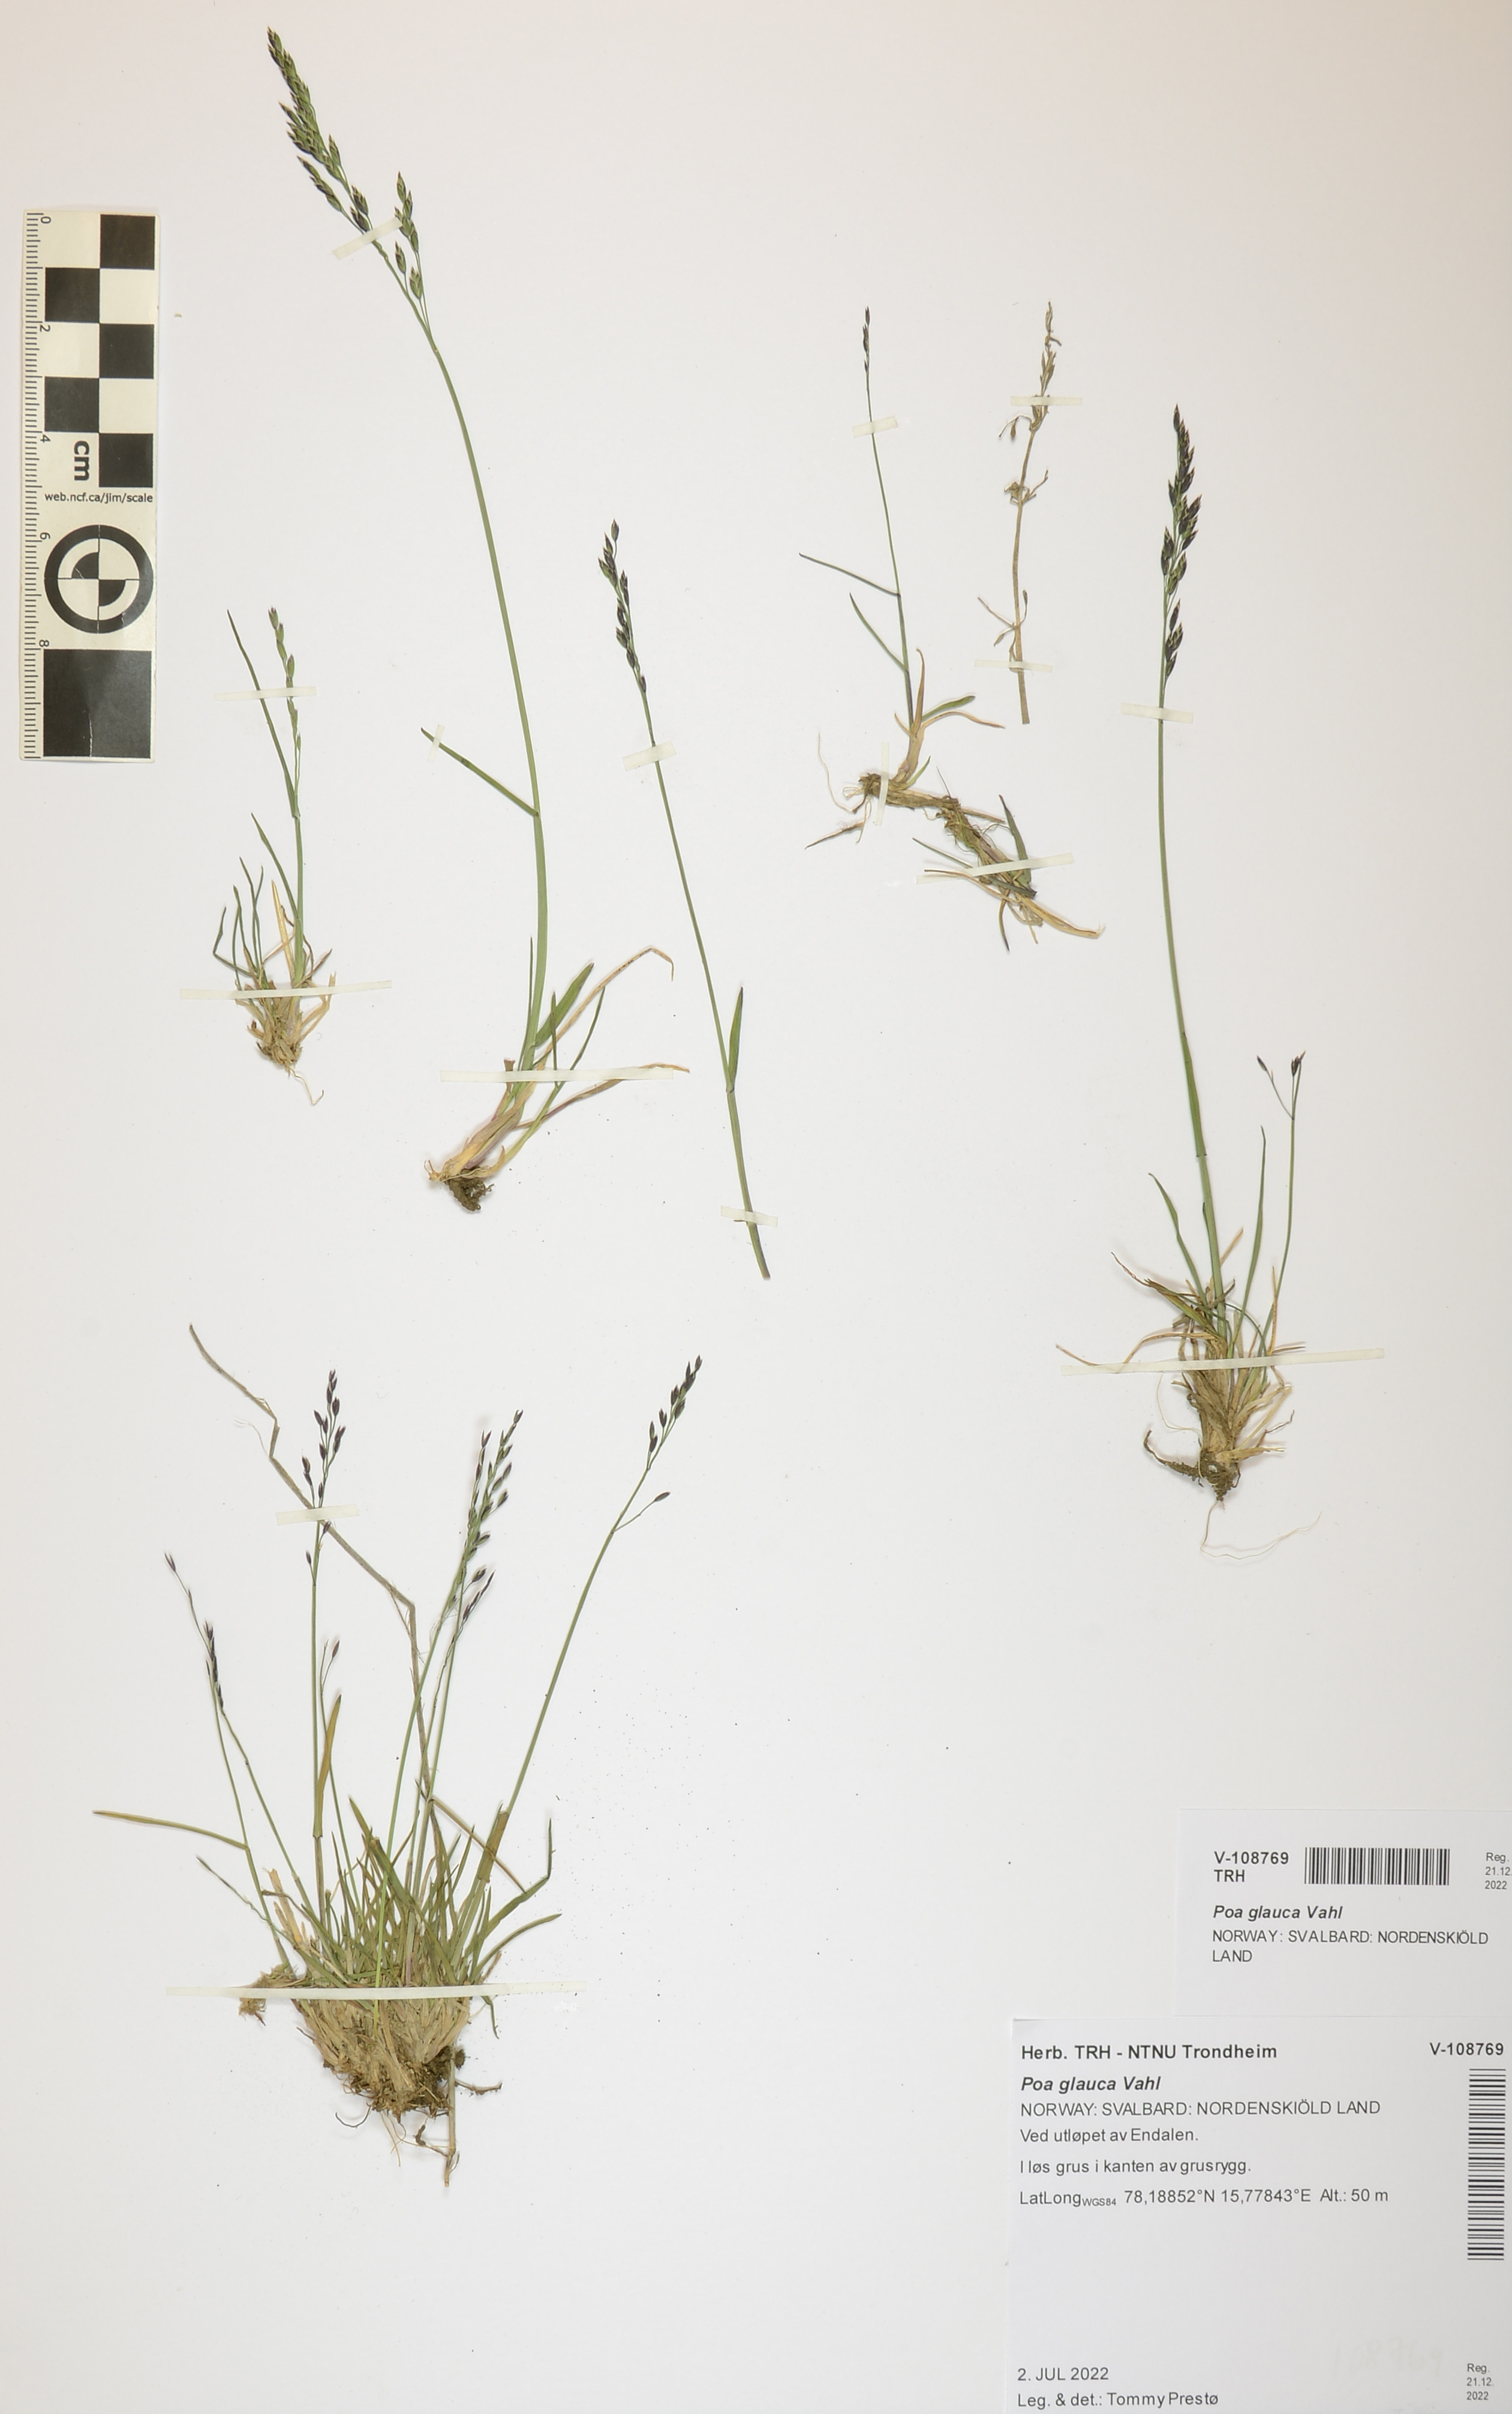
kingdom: Plantae
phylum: Tracheophyta
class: Liliopsida
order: Poales
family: Poaceae
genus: Poa
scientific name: Poa glauca
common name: Glaucous bluegrass
